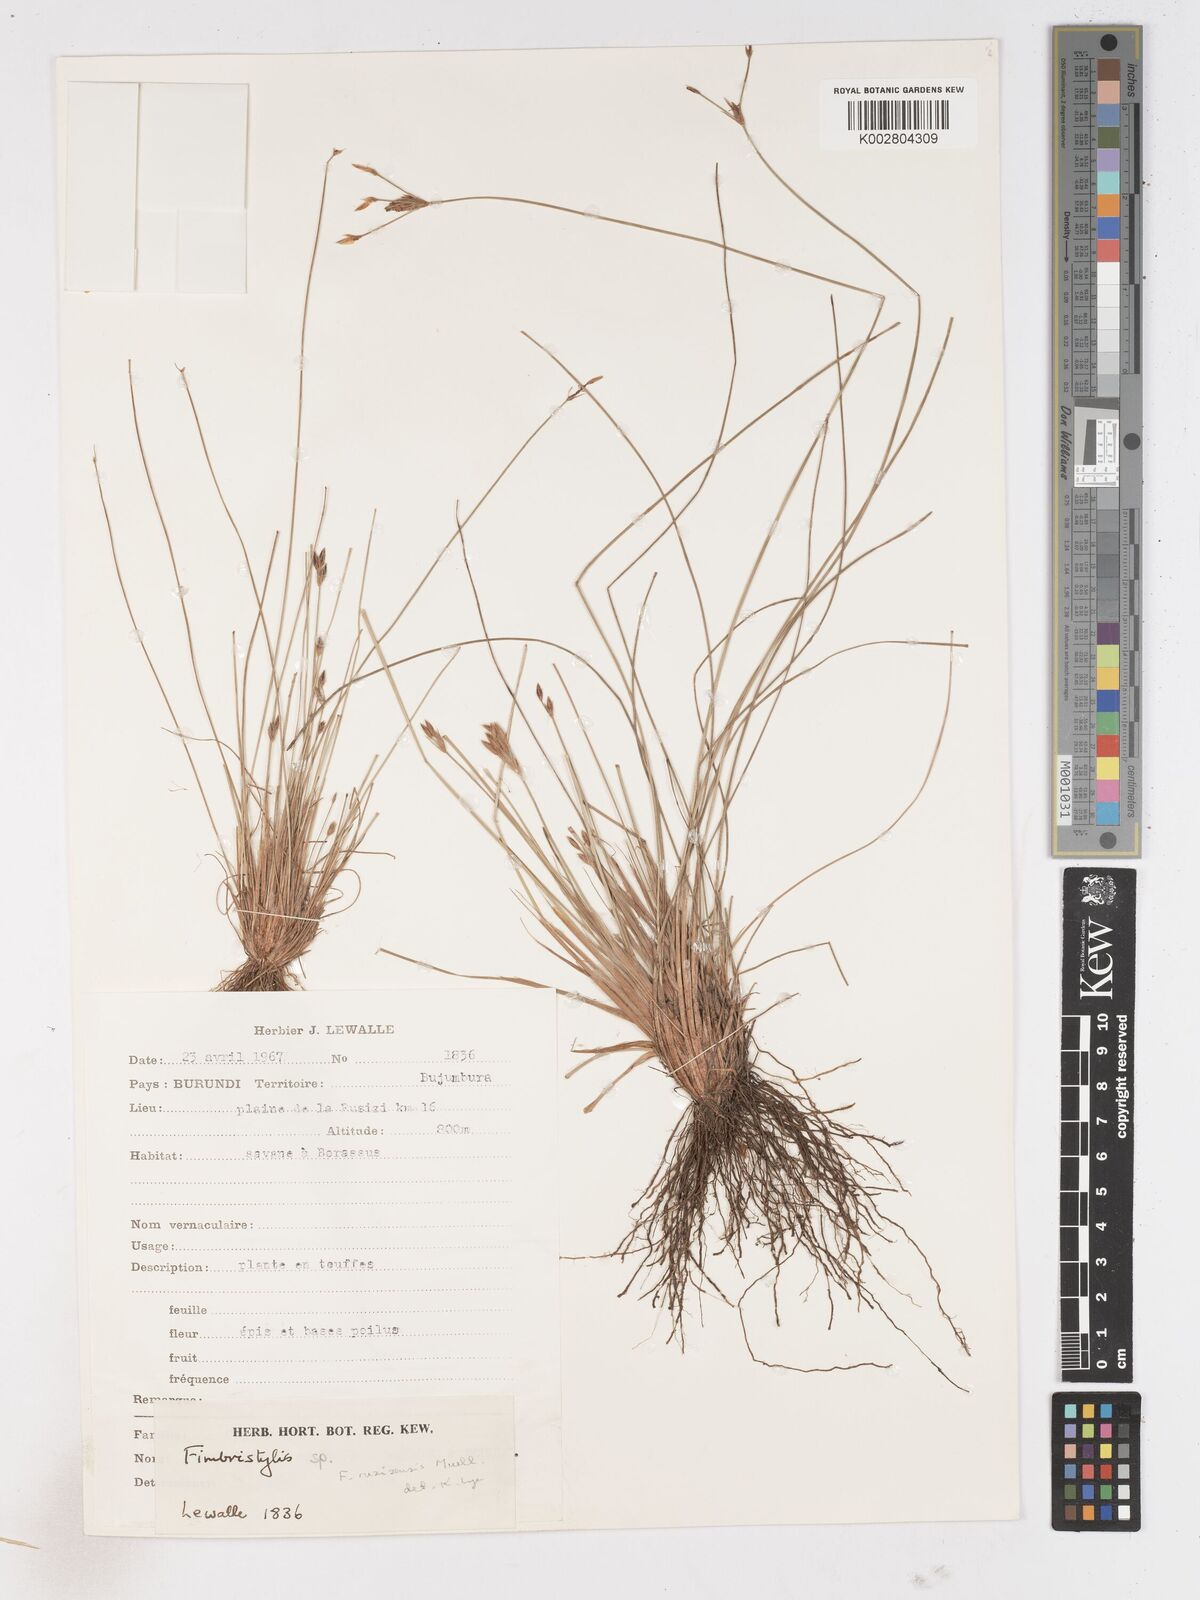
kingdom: Plantae
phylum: Tracheophyta
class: Liliopsida
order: Poales
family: Cyperaceae
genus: Fimbristylis
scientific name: Fimbristylis
